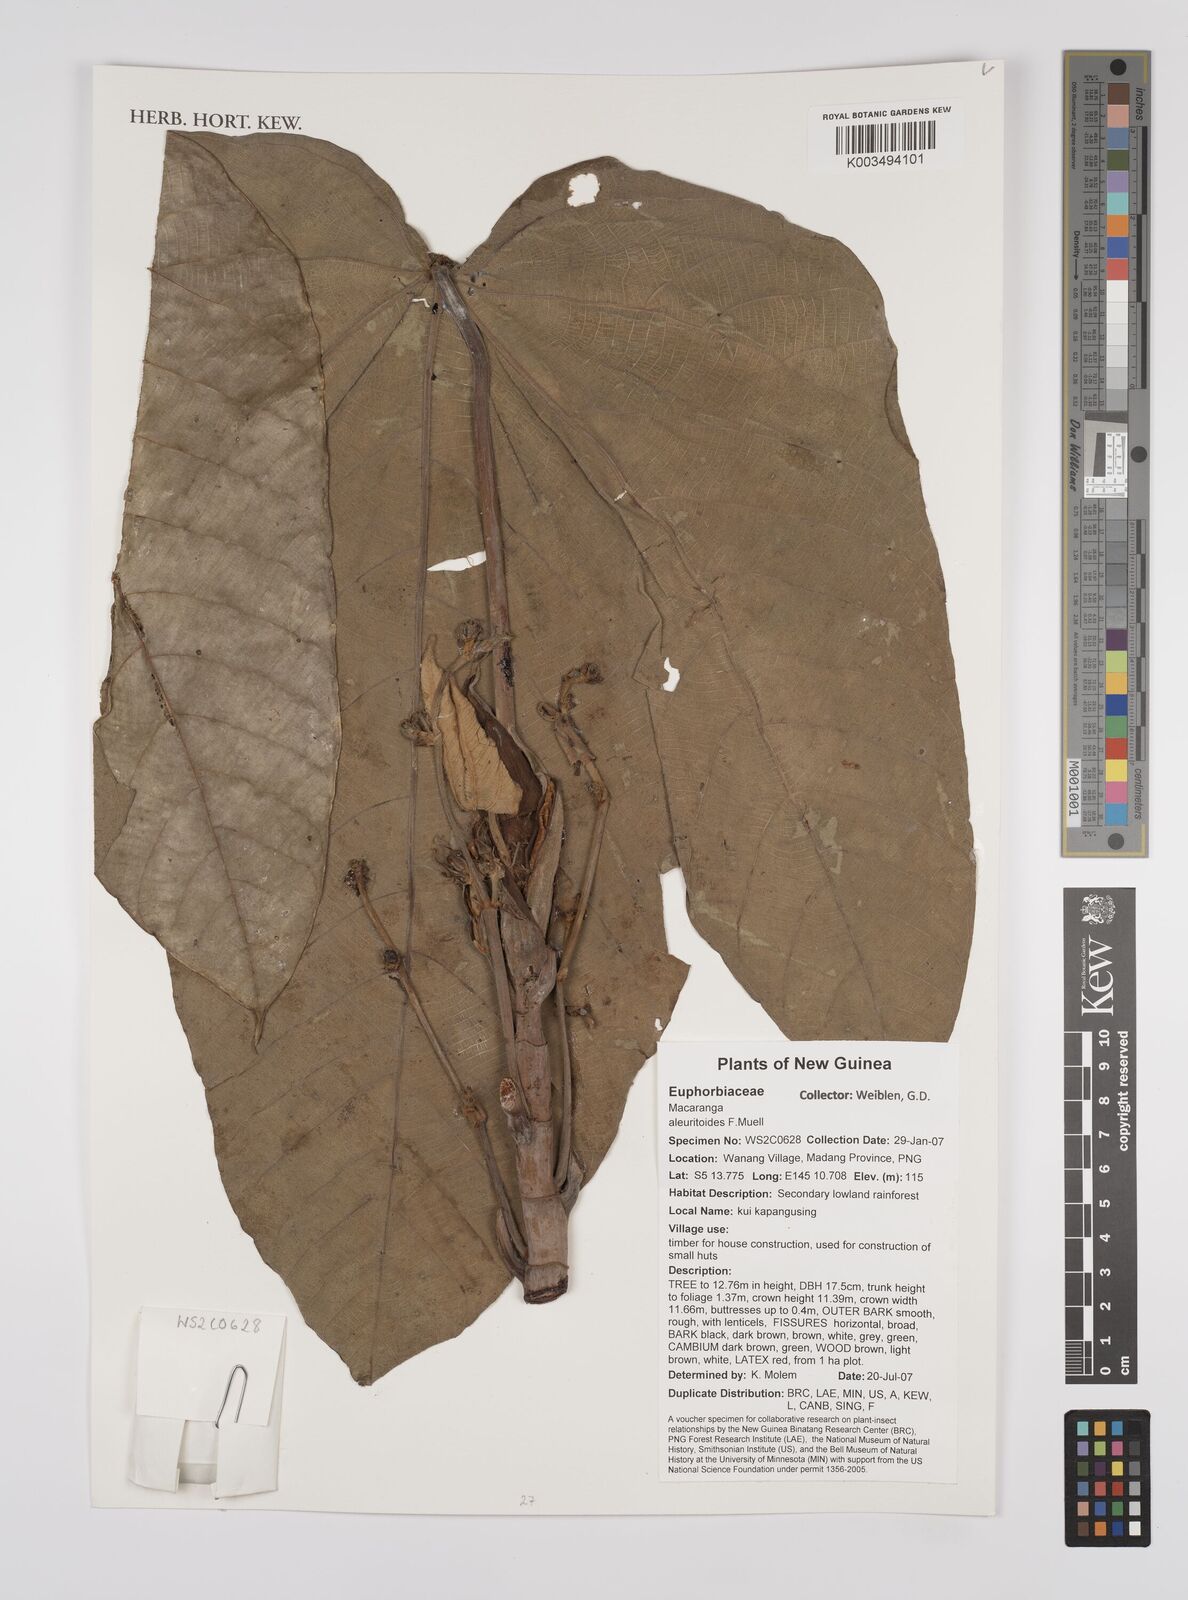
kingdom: Plantae
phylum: Tracheophyta
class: Magnoliopsida
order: Malpighiales
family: Euphorbiaceae
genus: Macaranga
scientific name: Macaranga aleuritoides
